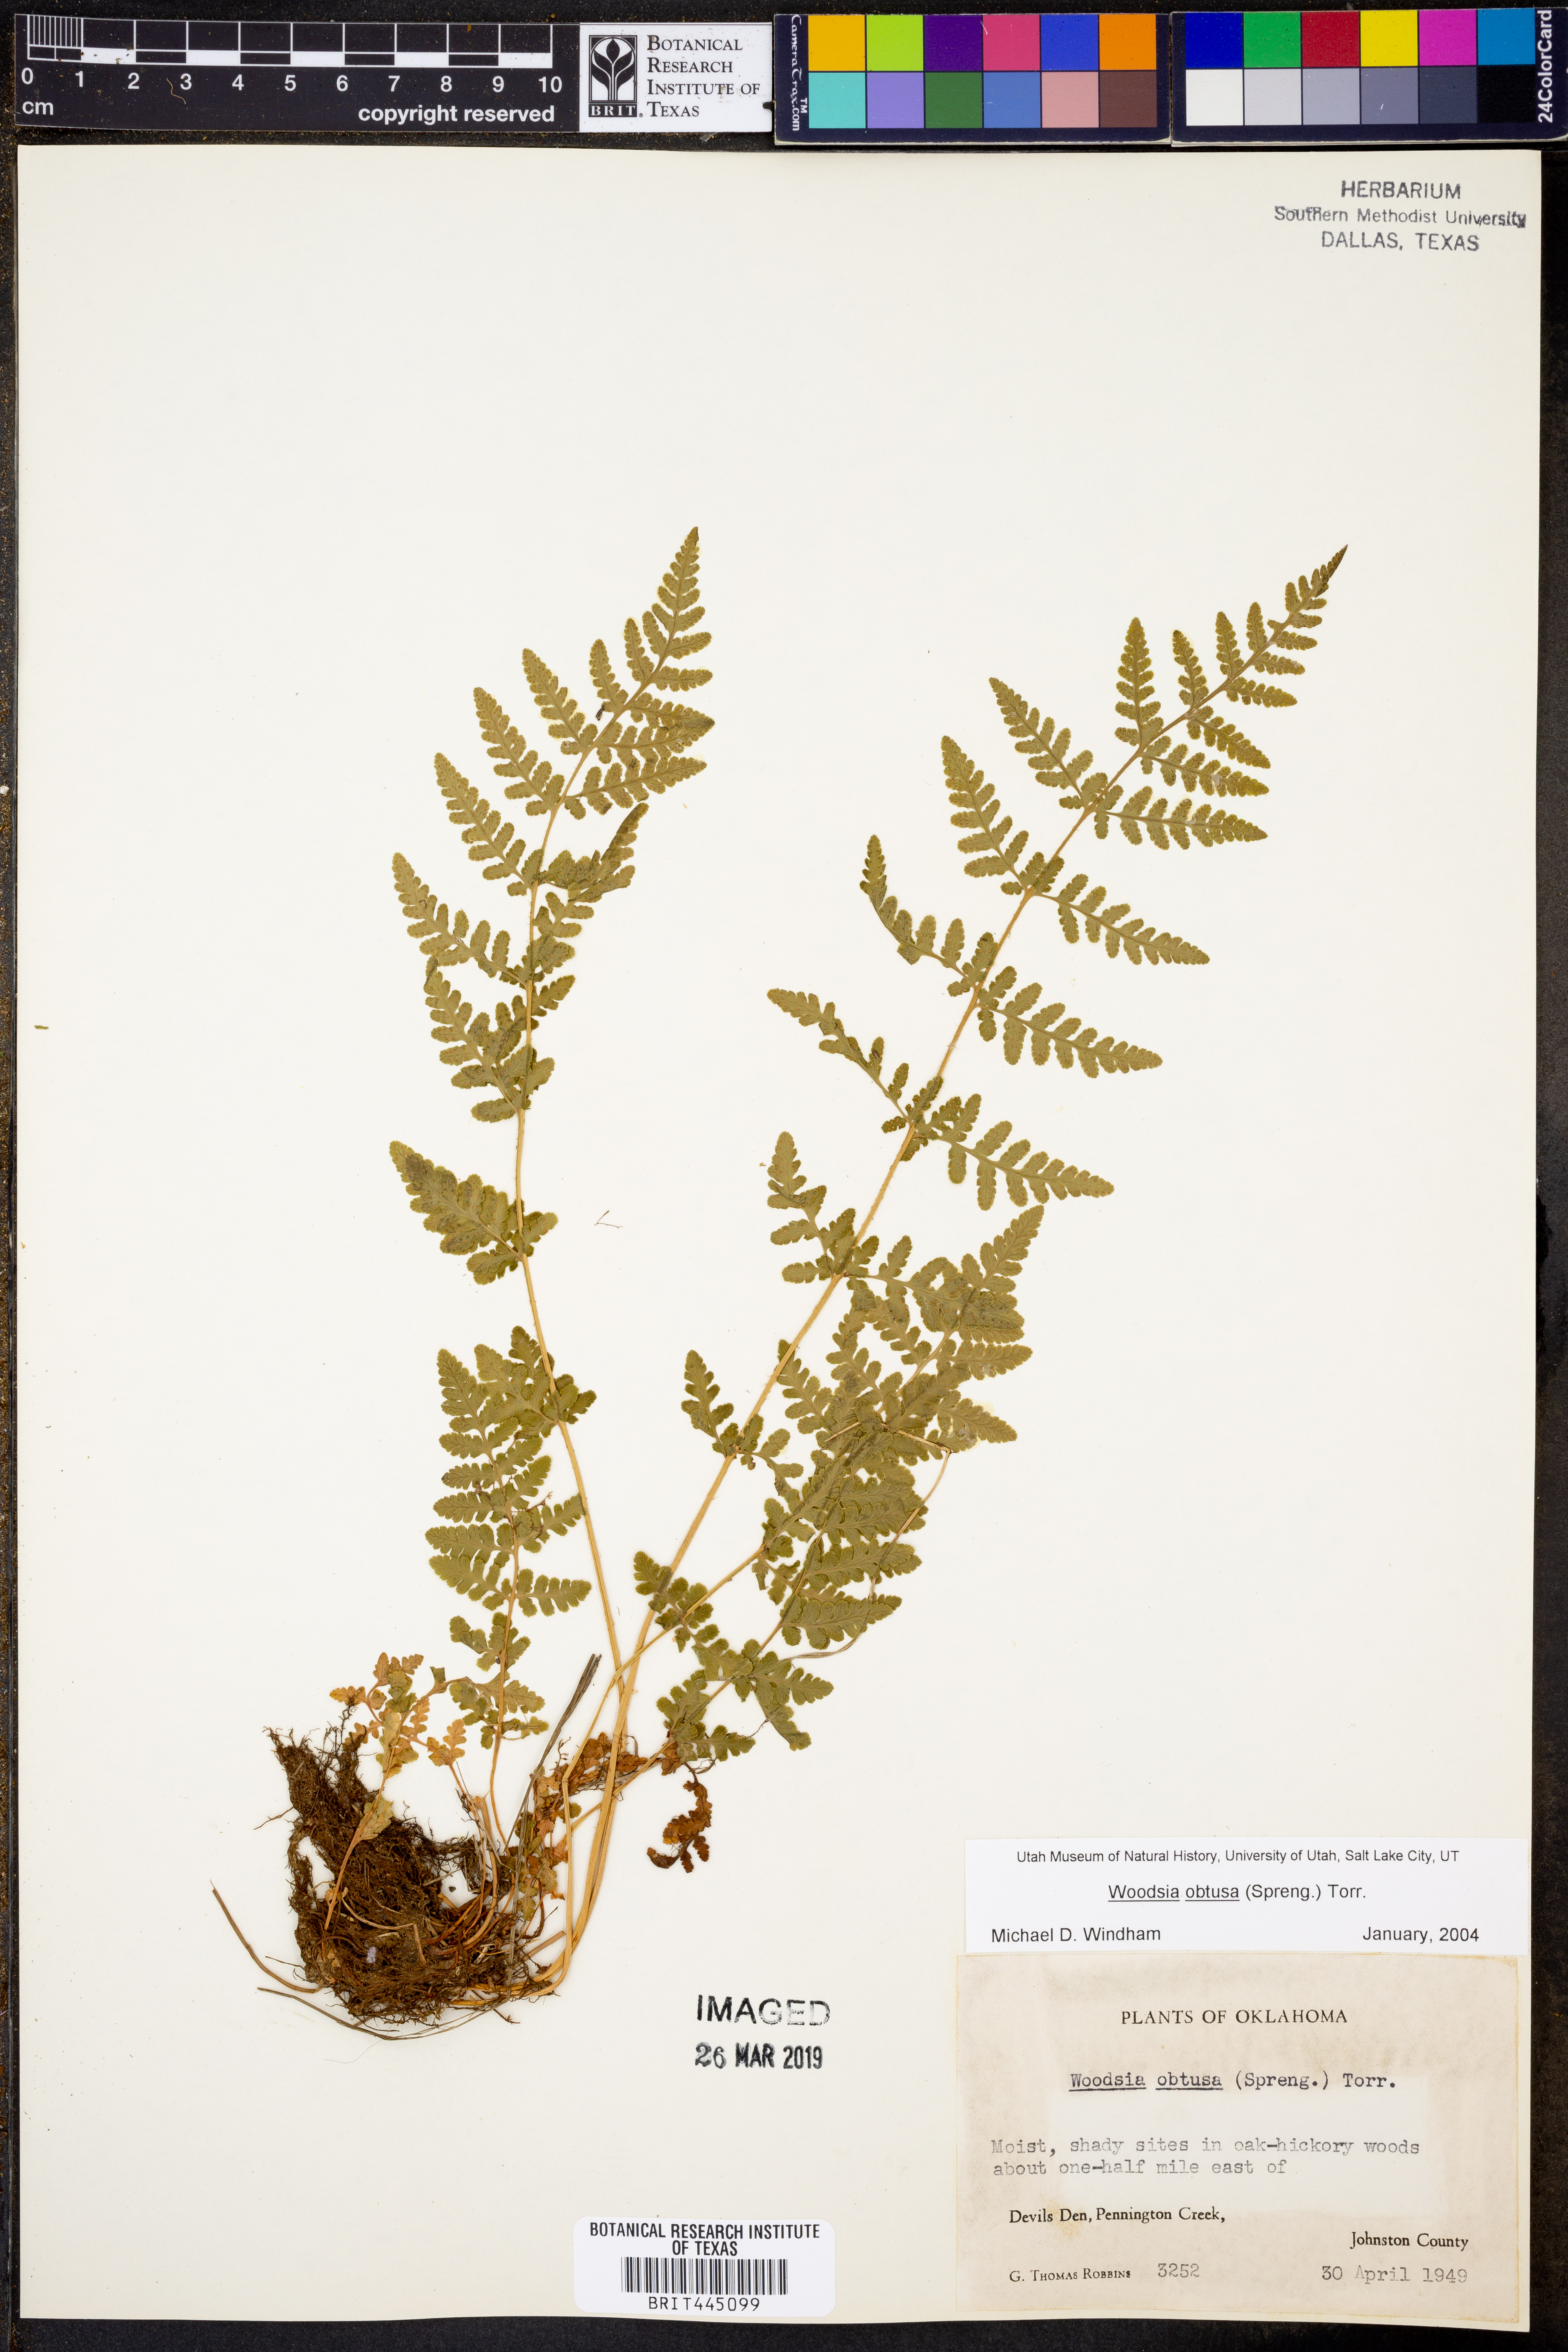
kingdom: Plantae
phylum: Tracheophyta
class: Polypodiopsida
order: Polypodiales
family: Woodsiaceae
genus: Physematium
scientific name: Physematium obtusum
